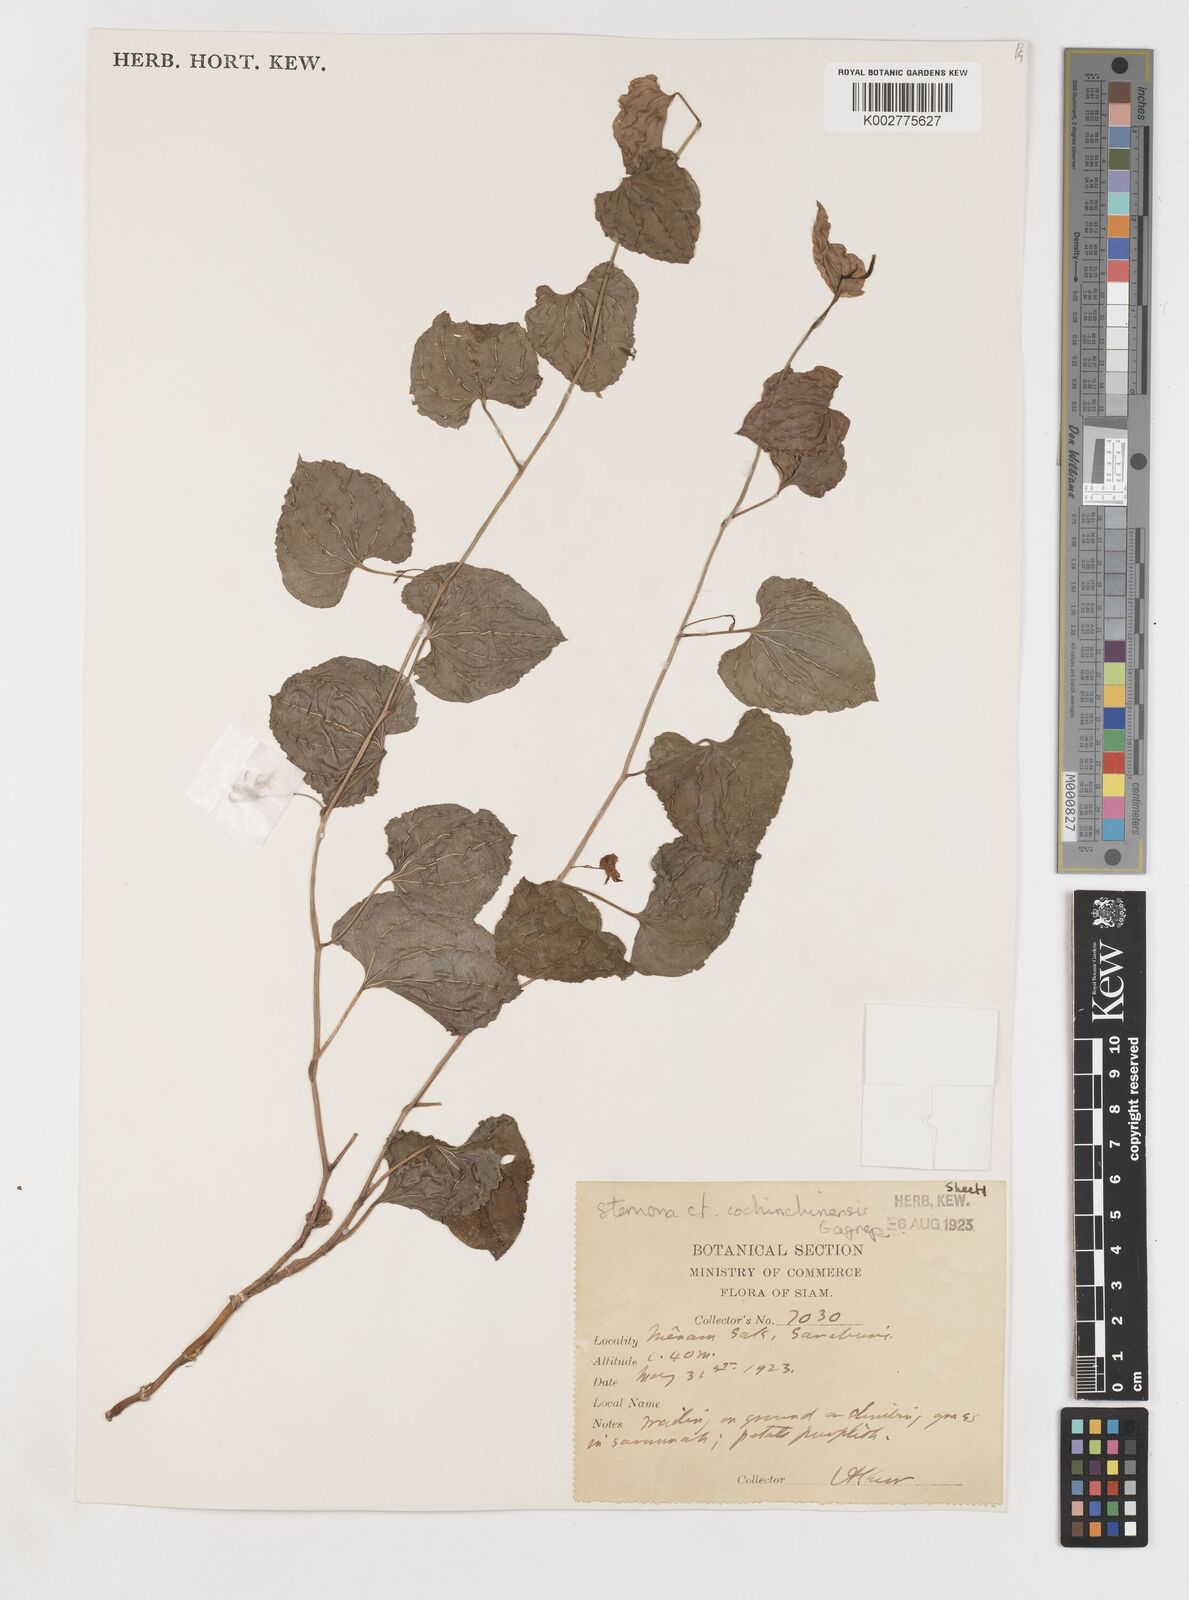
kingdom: Plantae
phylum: Tracheophyta
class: Liliopsida
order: Pandanales
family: Stemonaceae
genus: Stemona
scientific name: Stemona cochinchinensis
